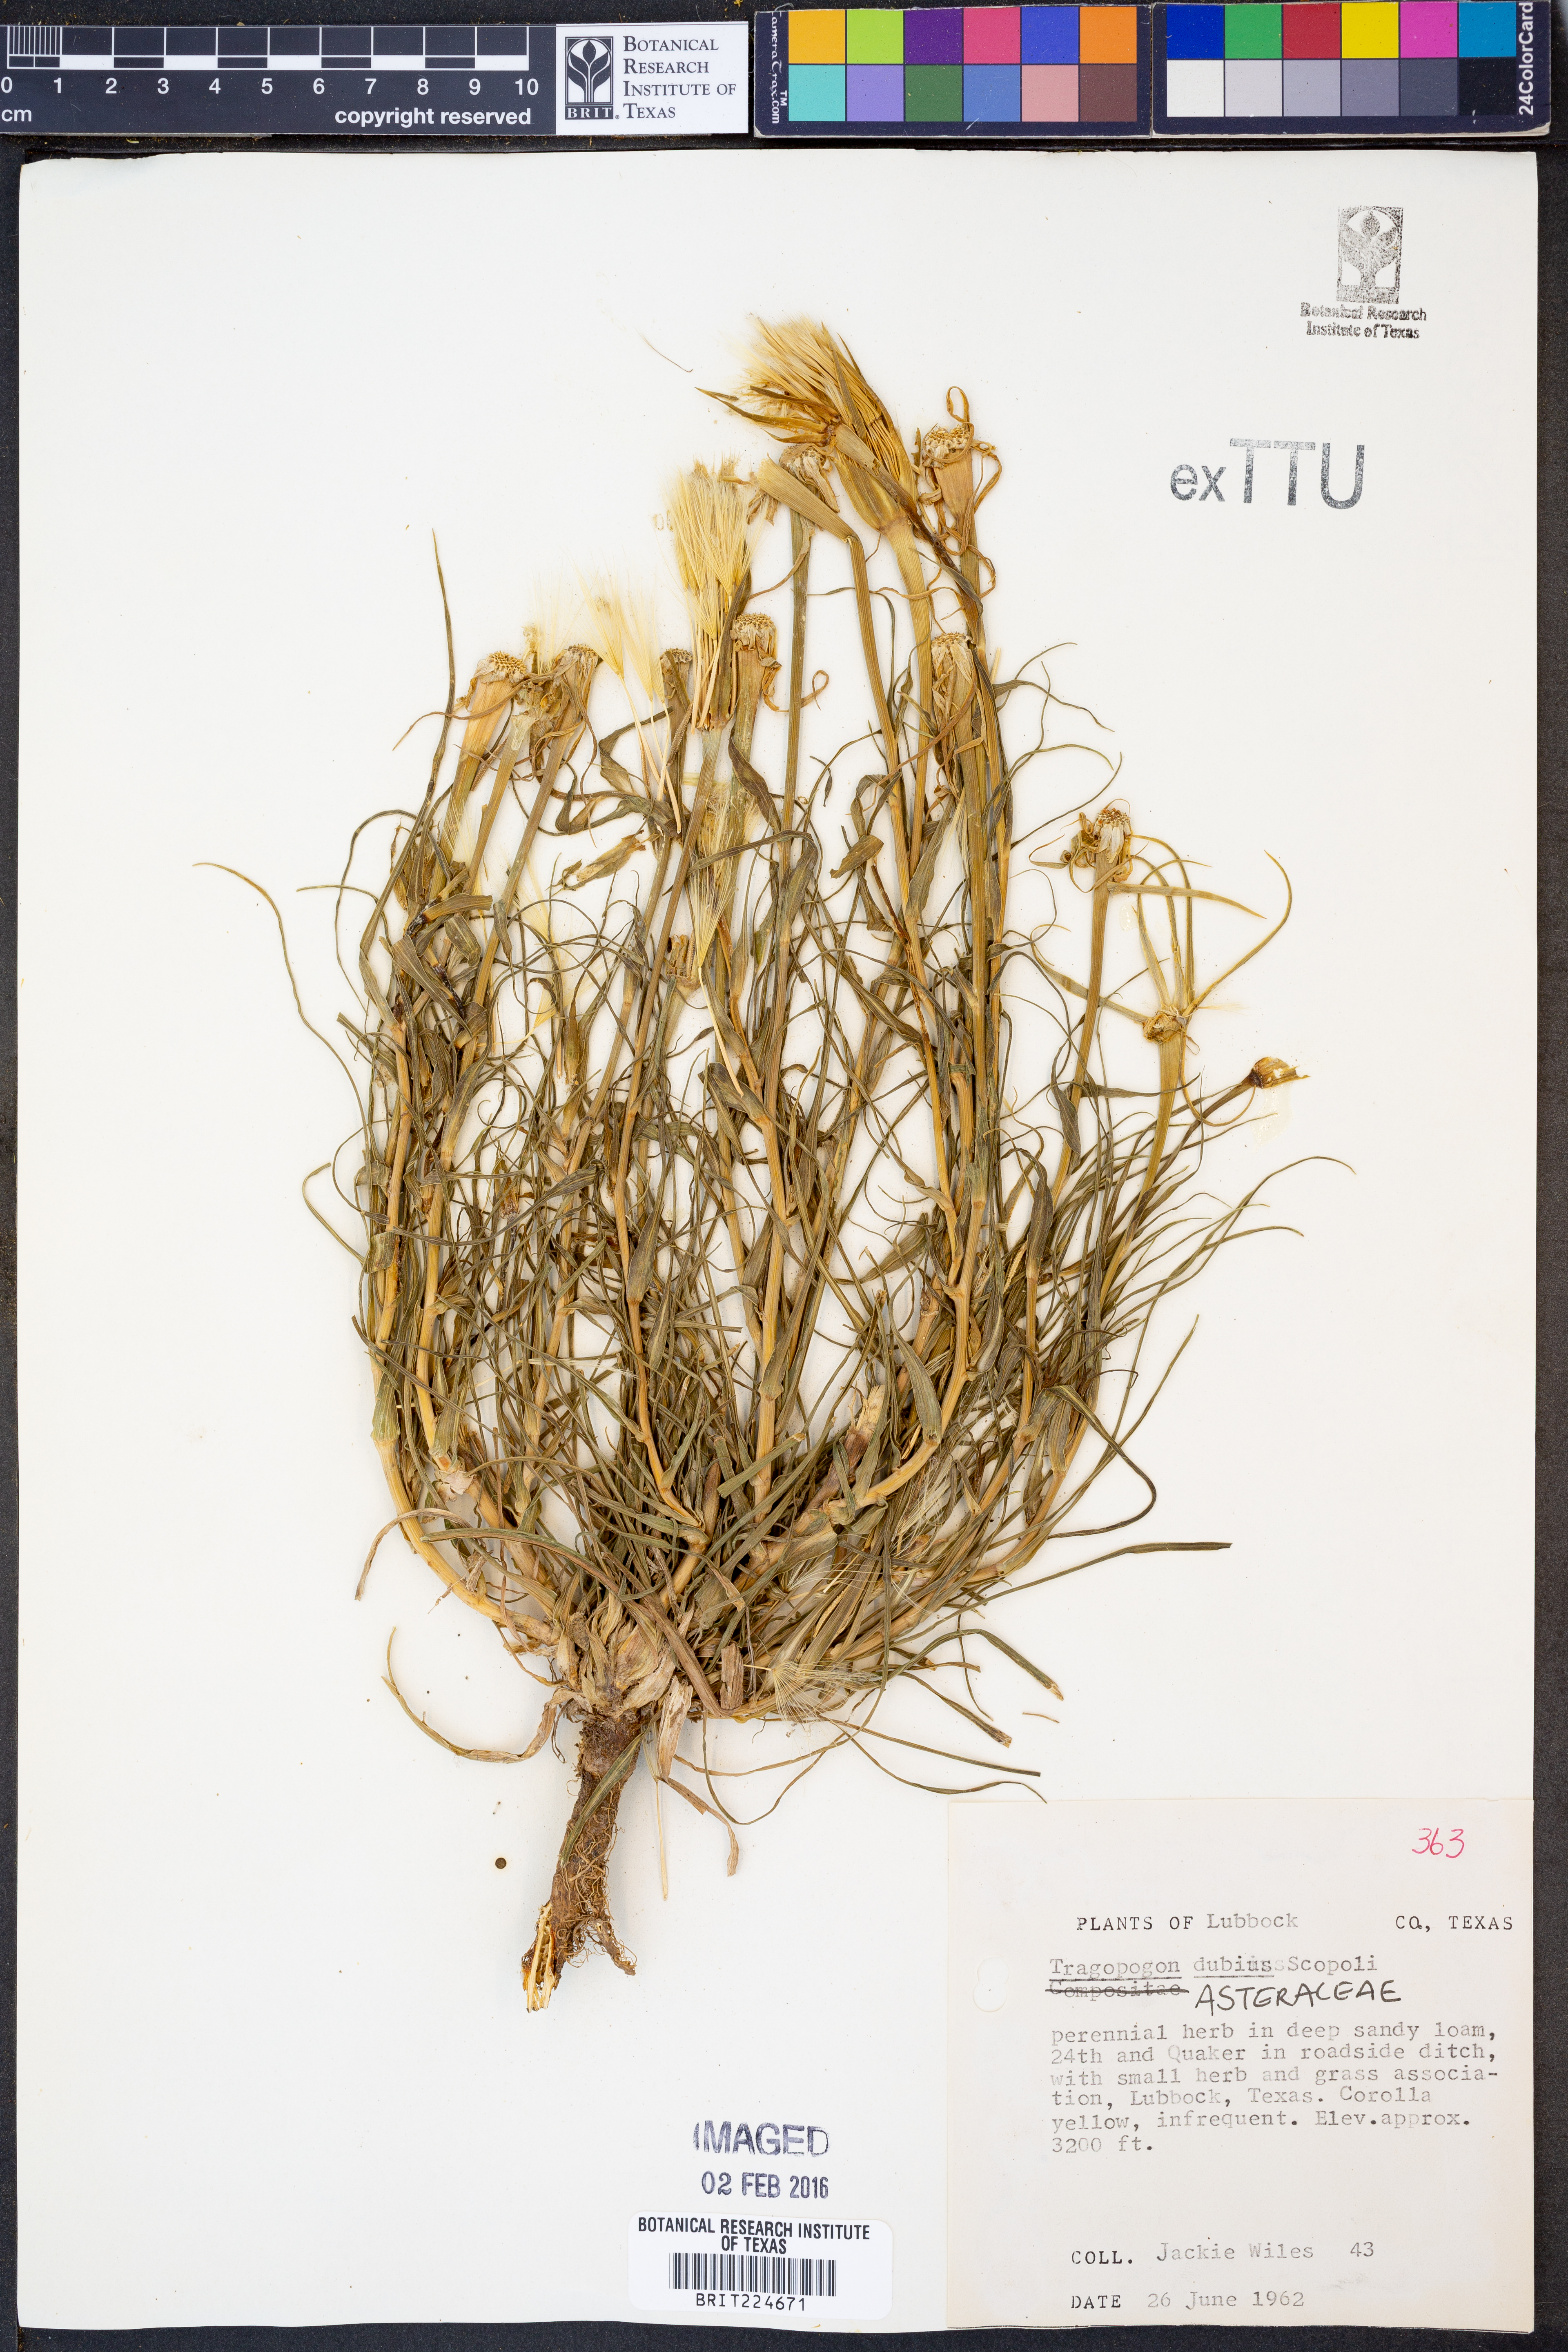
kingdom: Plantae
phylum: Tracheophyta
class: Magnoliopsida
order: Asterales
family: Asteraceae
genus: Tragopogon
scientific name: Tragopogon dubius
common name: Yellow salsify
